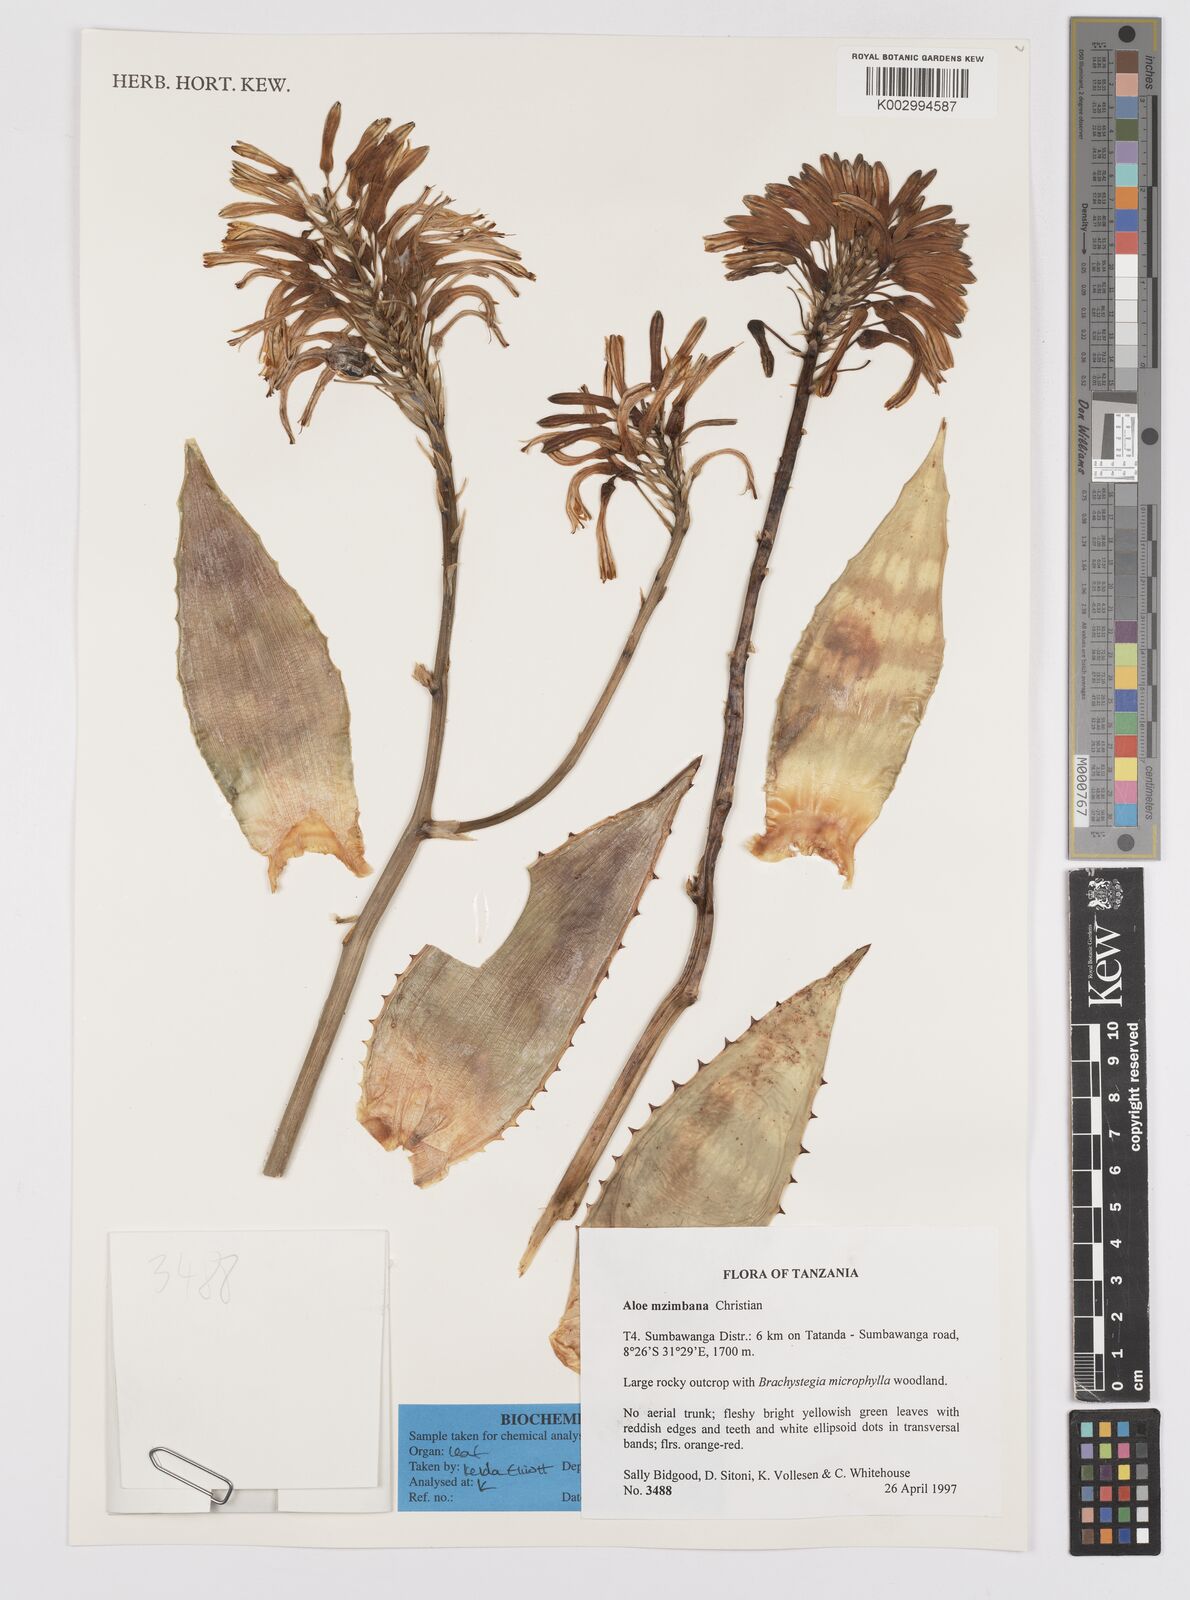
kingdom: Plantae
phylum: Tracheophyta
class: Liliopsida
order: Asparagales
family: Asphodelaceae
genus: Aloe
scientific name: Aloe mzimbana
